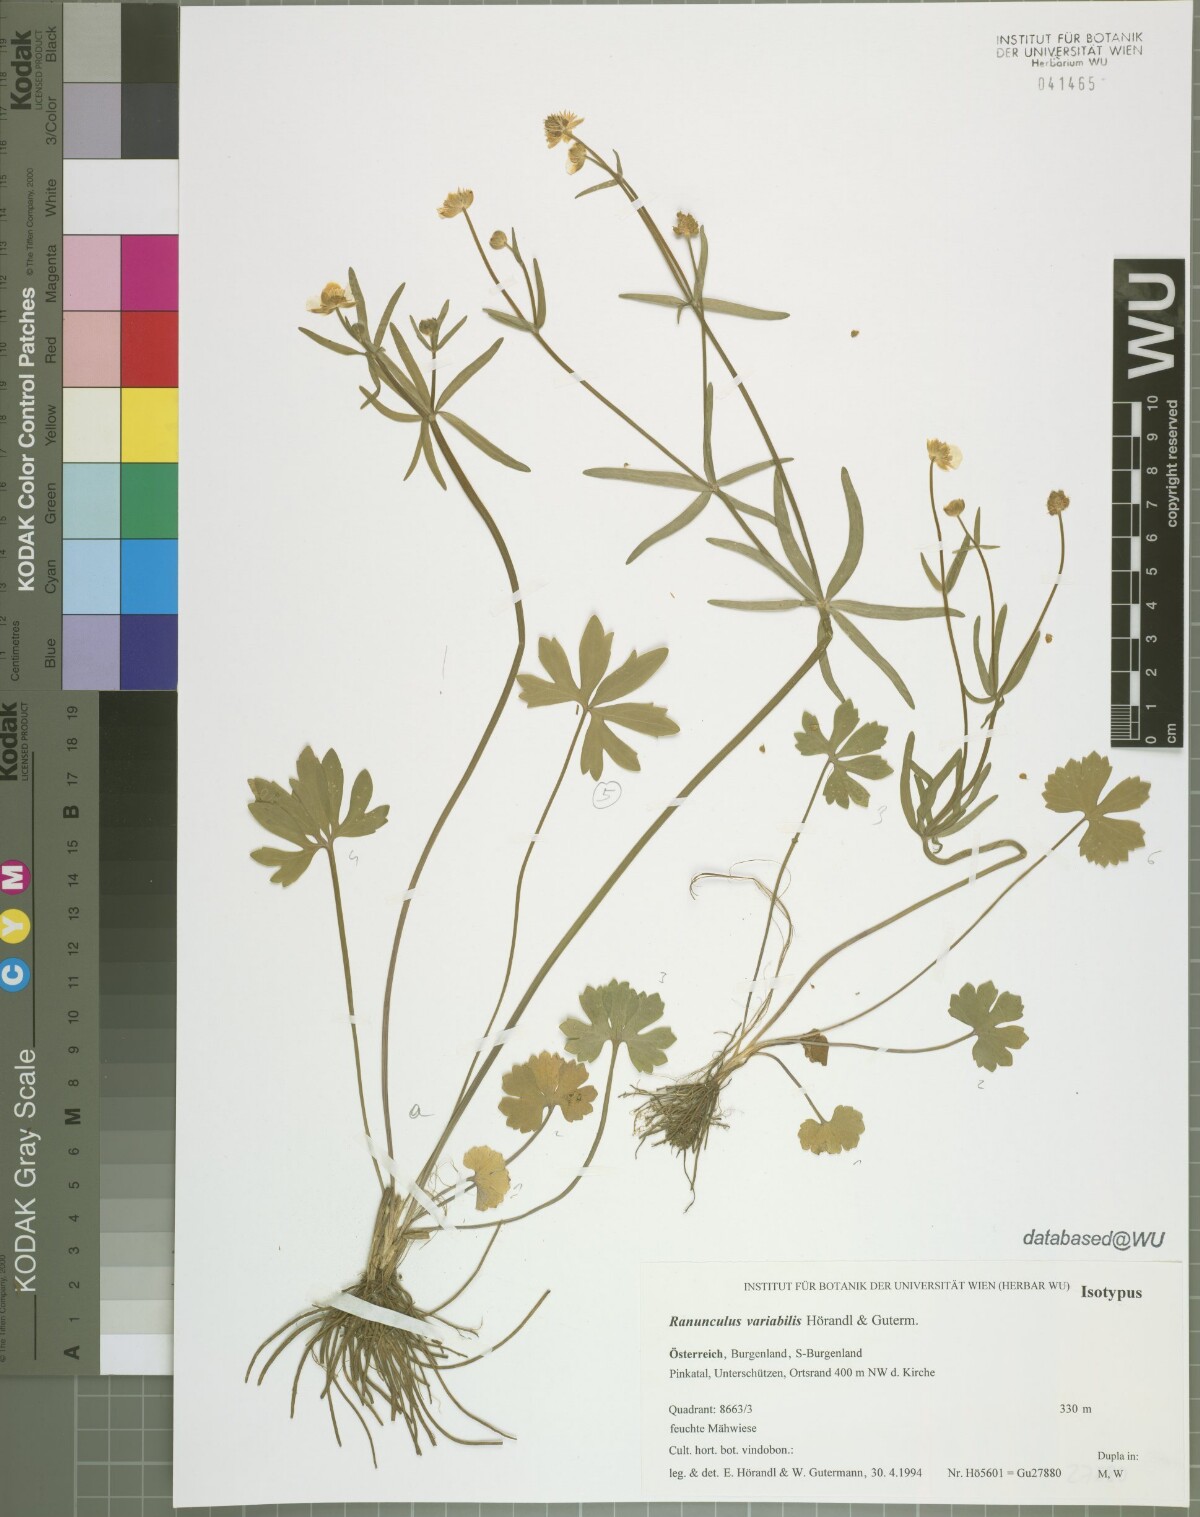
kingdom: Plantae
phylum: Tracheophyta
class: Magnoliopsida
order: Ranunculales
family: Ranunculaceae
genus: Ranunculus
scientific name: Ranunculus variabilis
